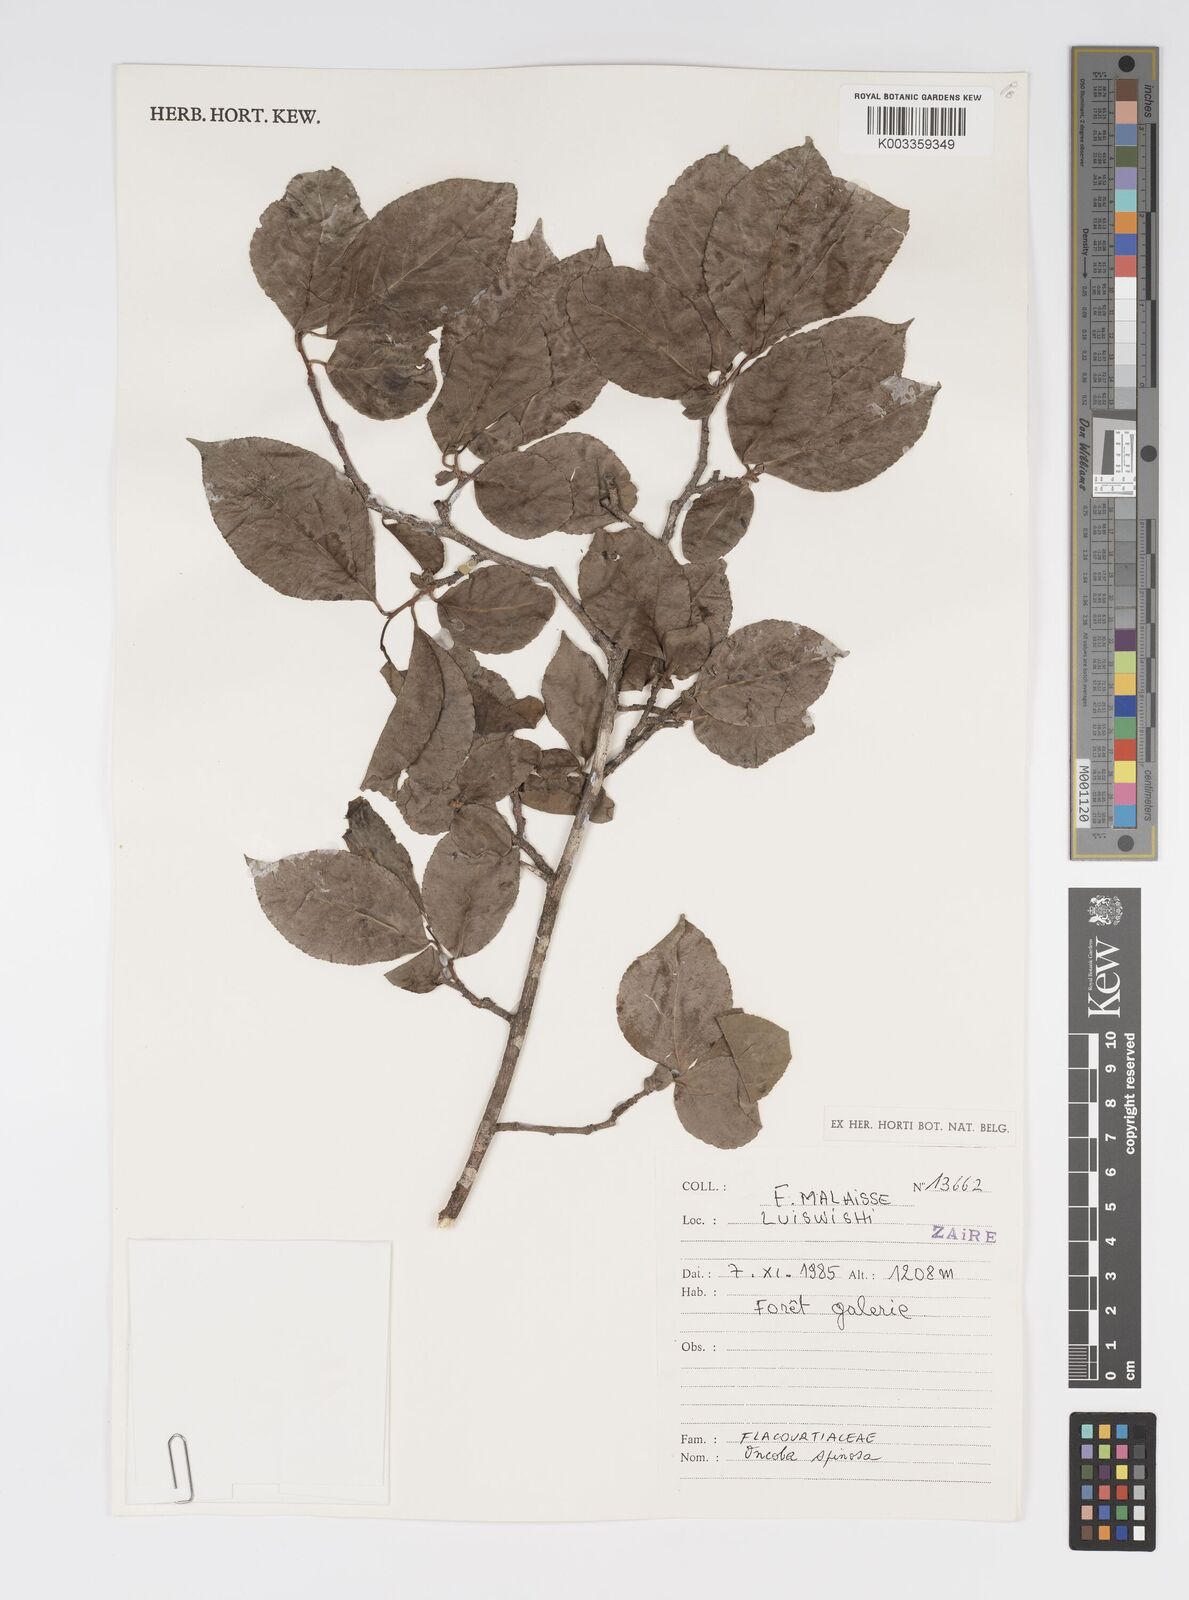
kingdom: Plantae
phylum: Tracheophyta
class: Magnoliopsida
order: Malpighiales
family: Salicaceae
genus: Oncoba
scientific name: Oncoba spinosa
